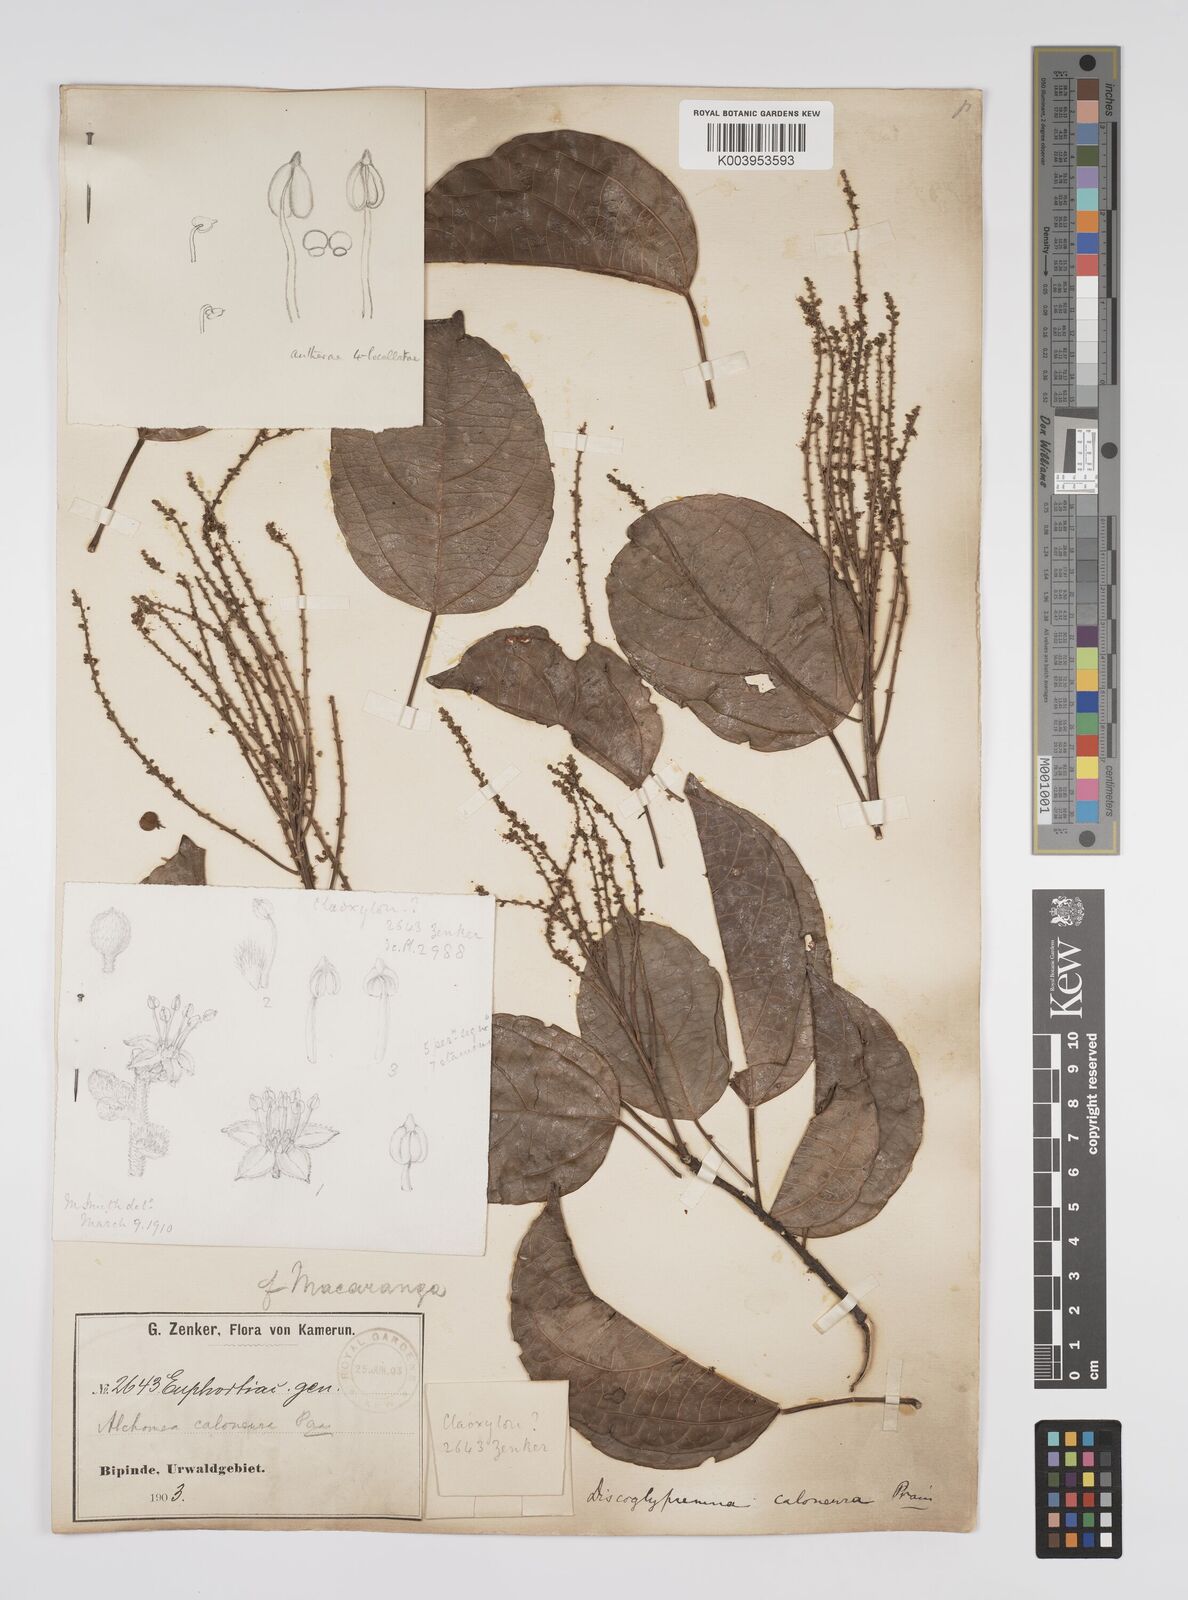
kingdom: Plantae
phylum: Tracheophyta
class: Magnoliopsida
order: Malpighiales
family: Euphorbiaceae
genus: Discoglypremna
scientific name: Discoglypremna caloneura
